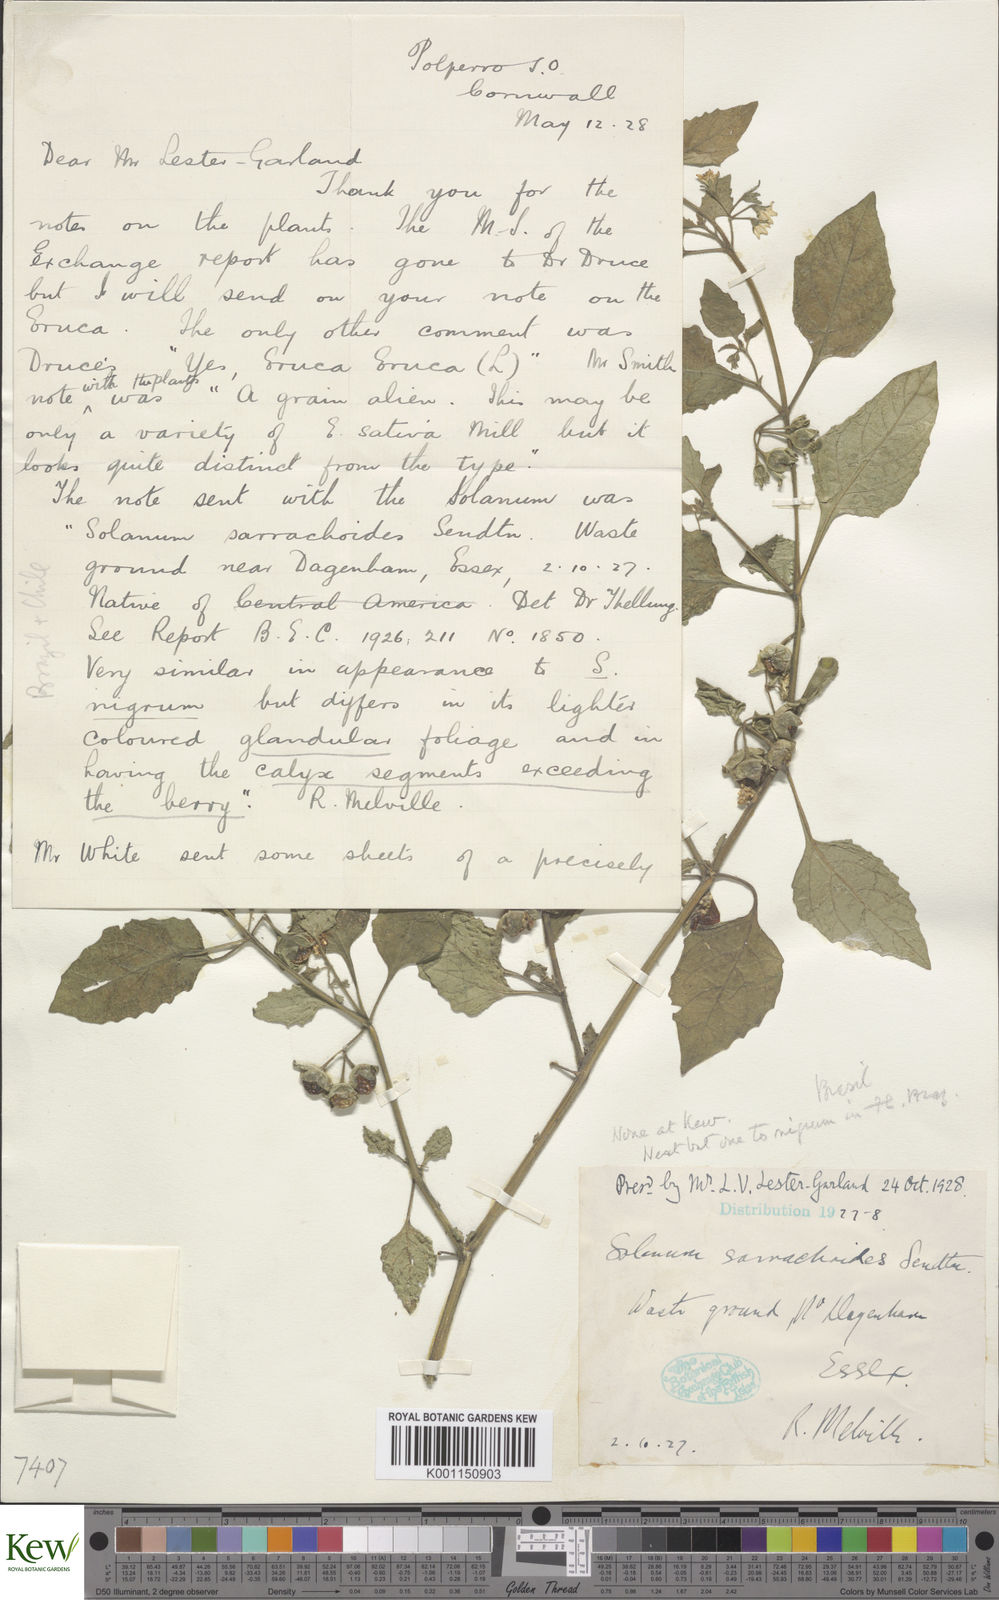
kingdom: Plantae
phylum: Tracheophyta
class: Magnoliopsida
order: Solanales
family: Solanaceae
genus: Solanum
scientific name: Solanum nitidibaccatum
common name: Hairy nightshade
